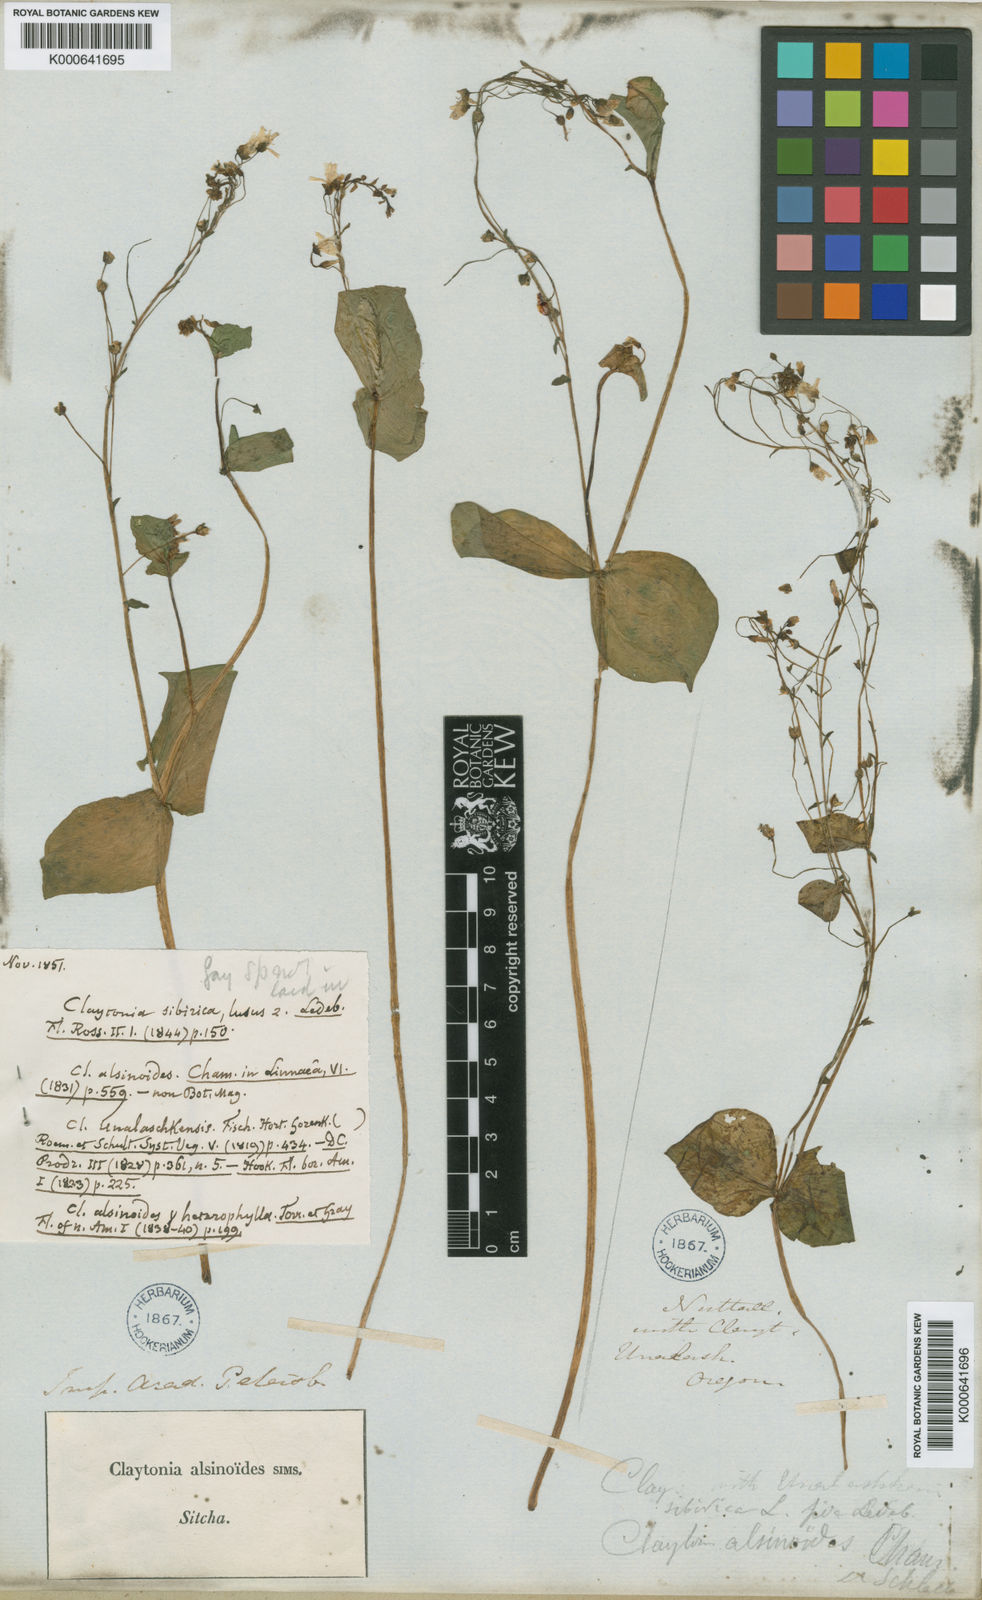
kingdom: Plantae
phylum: Tracheophyta
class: Magnoliopsida
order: Caryophyllales
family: Montiaceae
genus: Claytonia
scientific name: Claytonia sibirica
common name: Pink purslane
